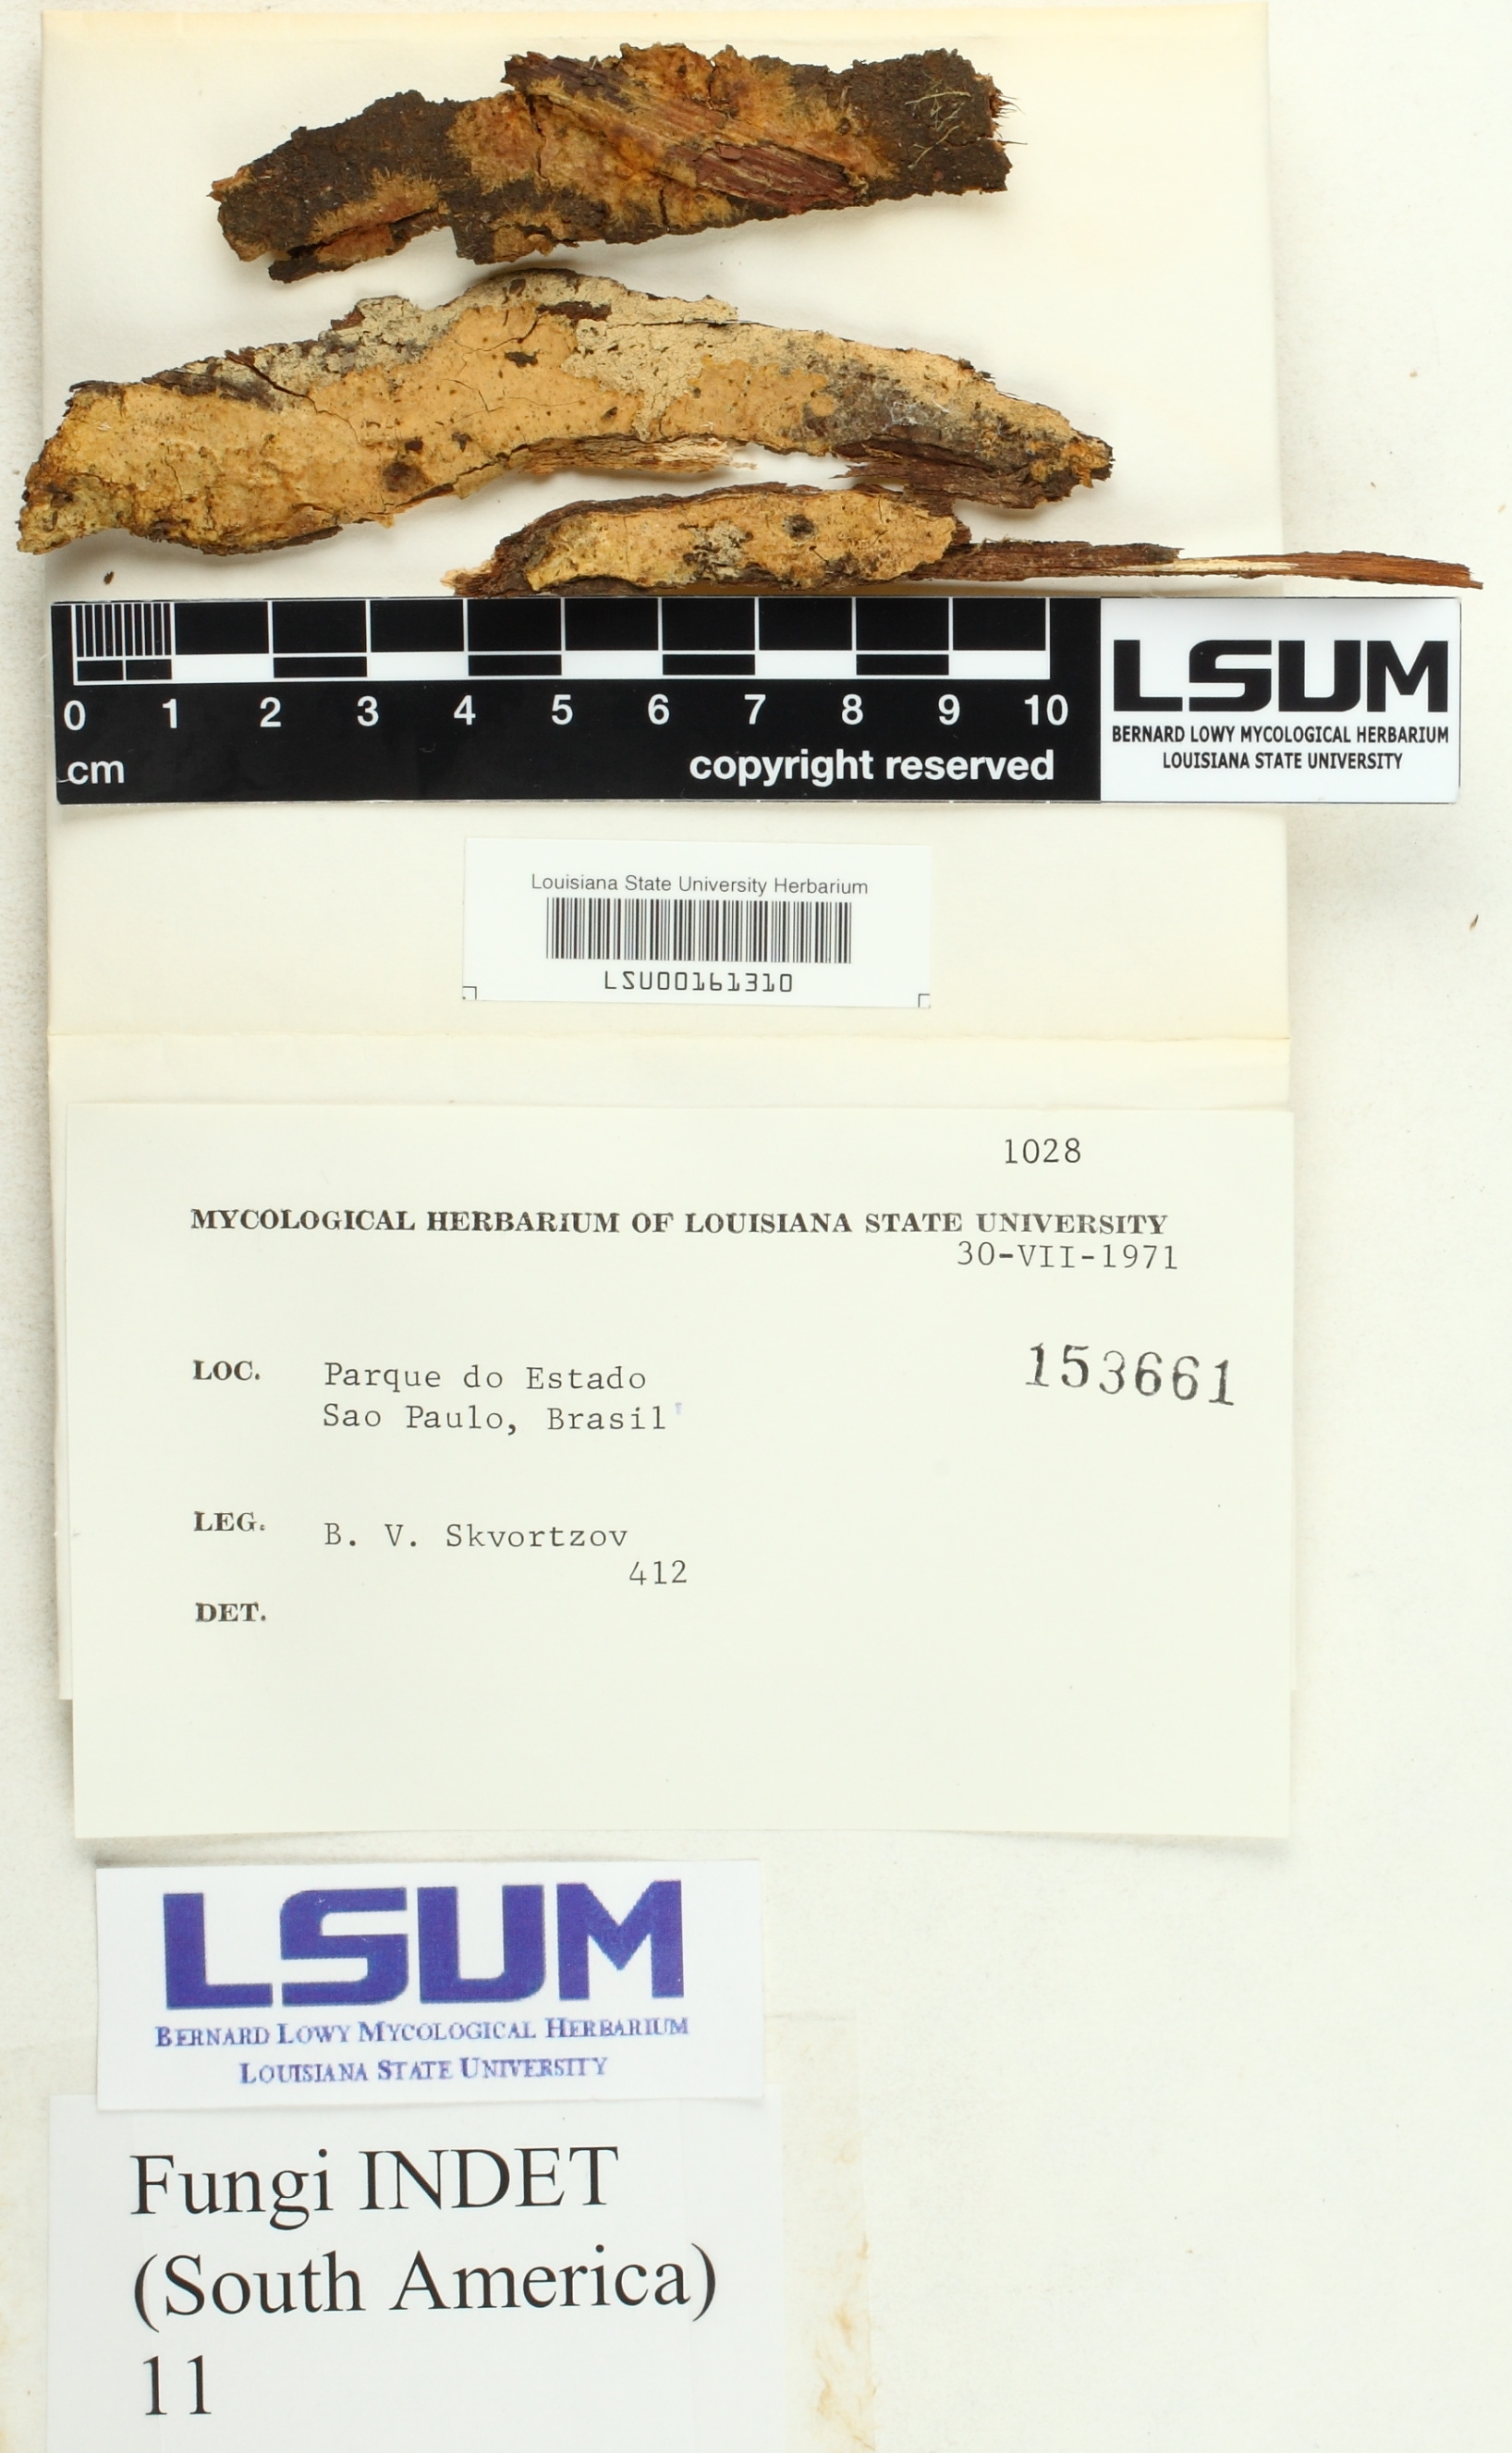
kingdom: Fungi
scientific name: Fungi
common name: Fungi
